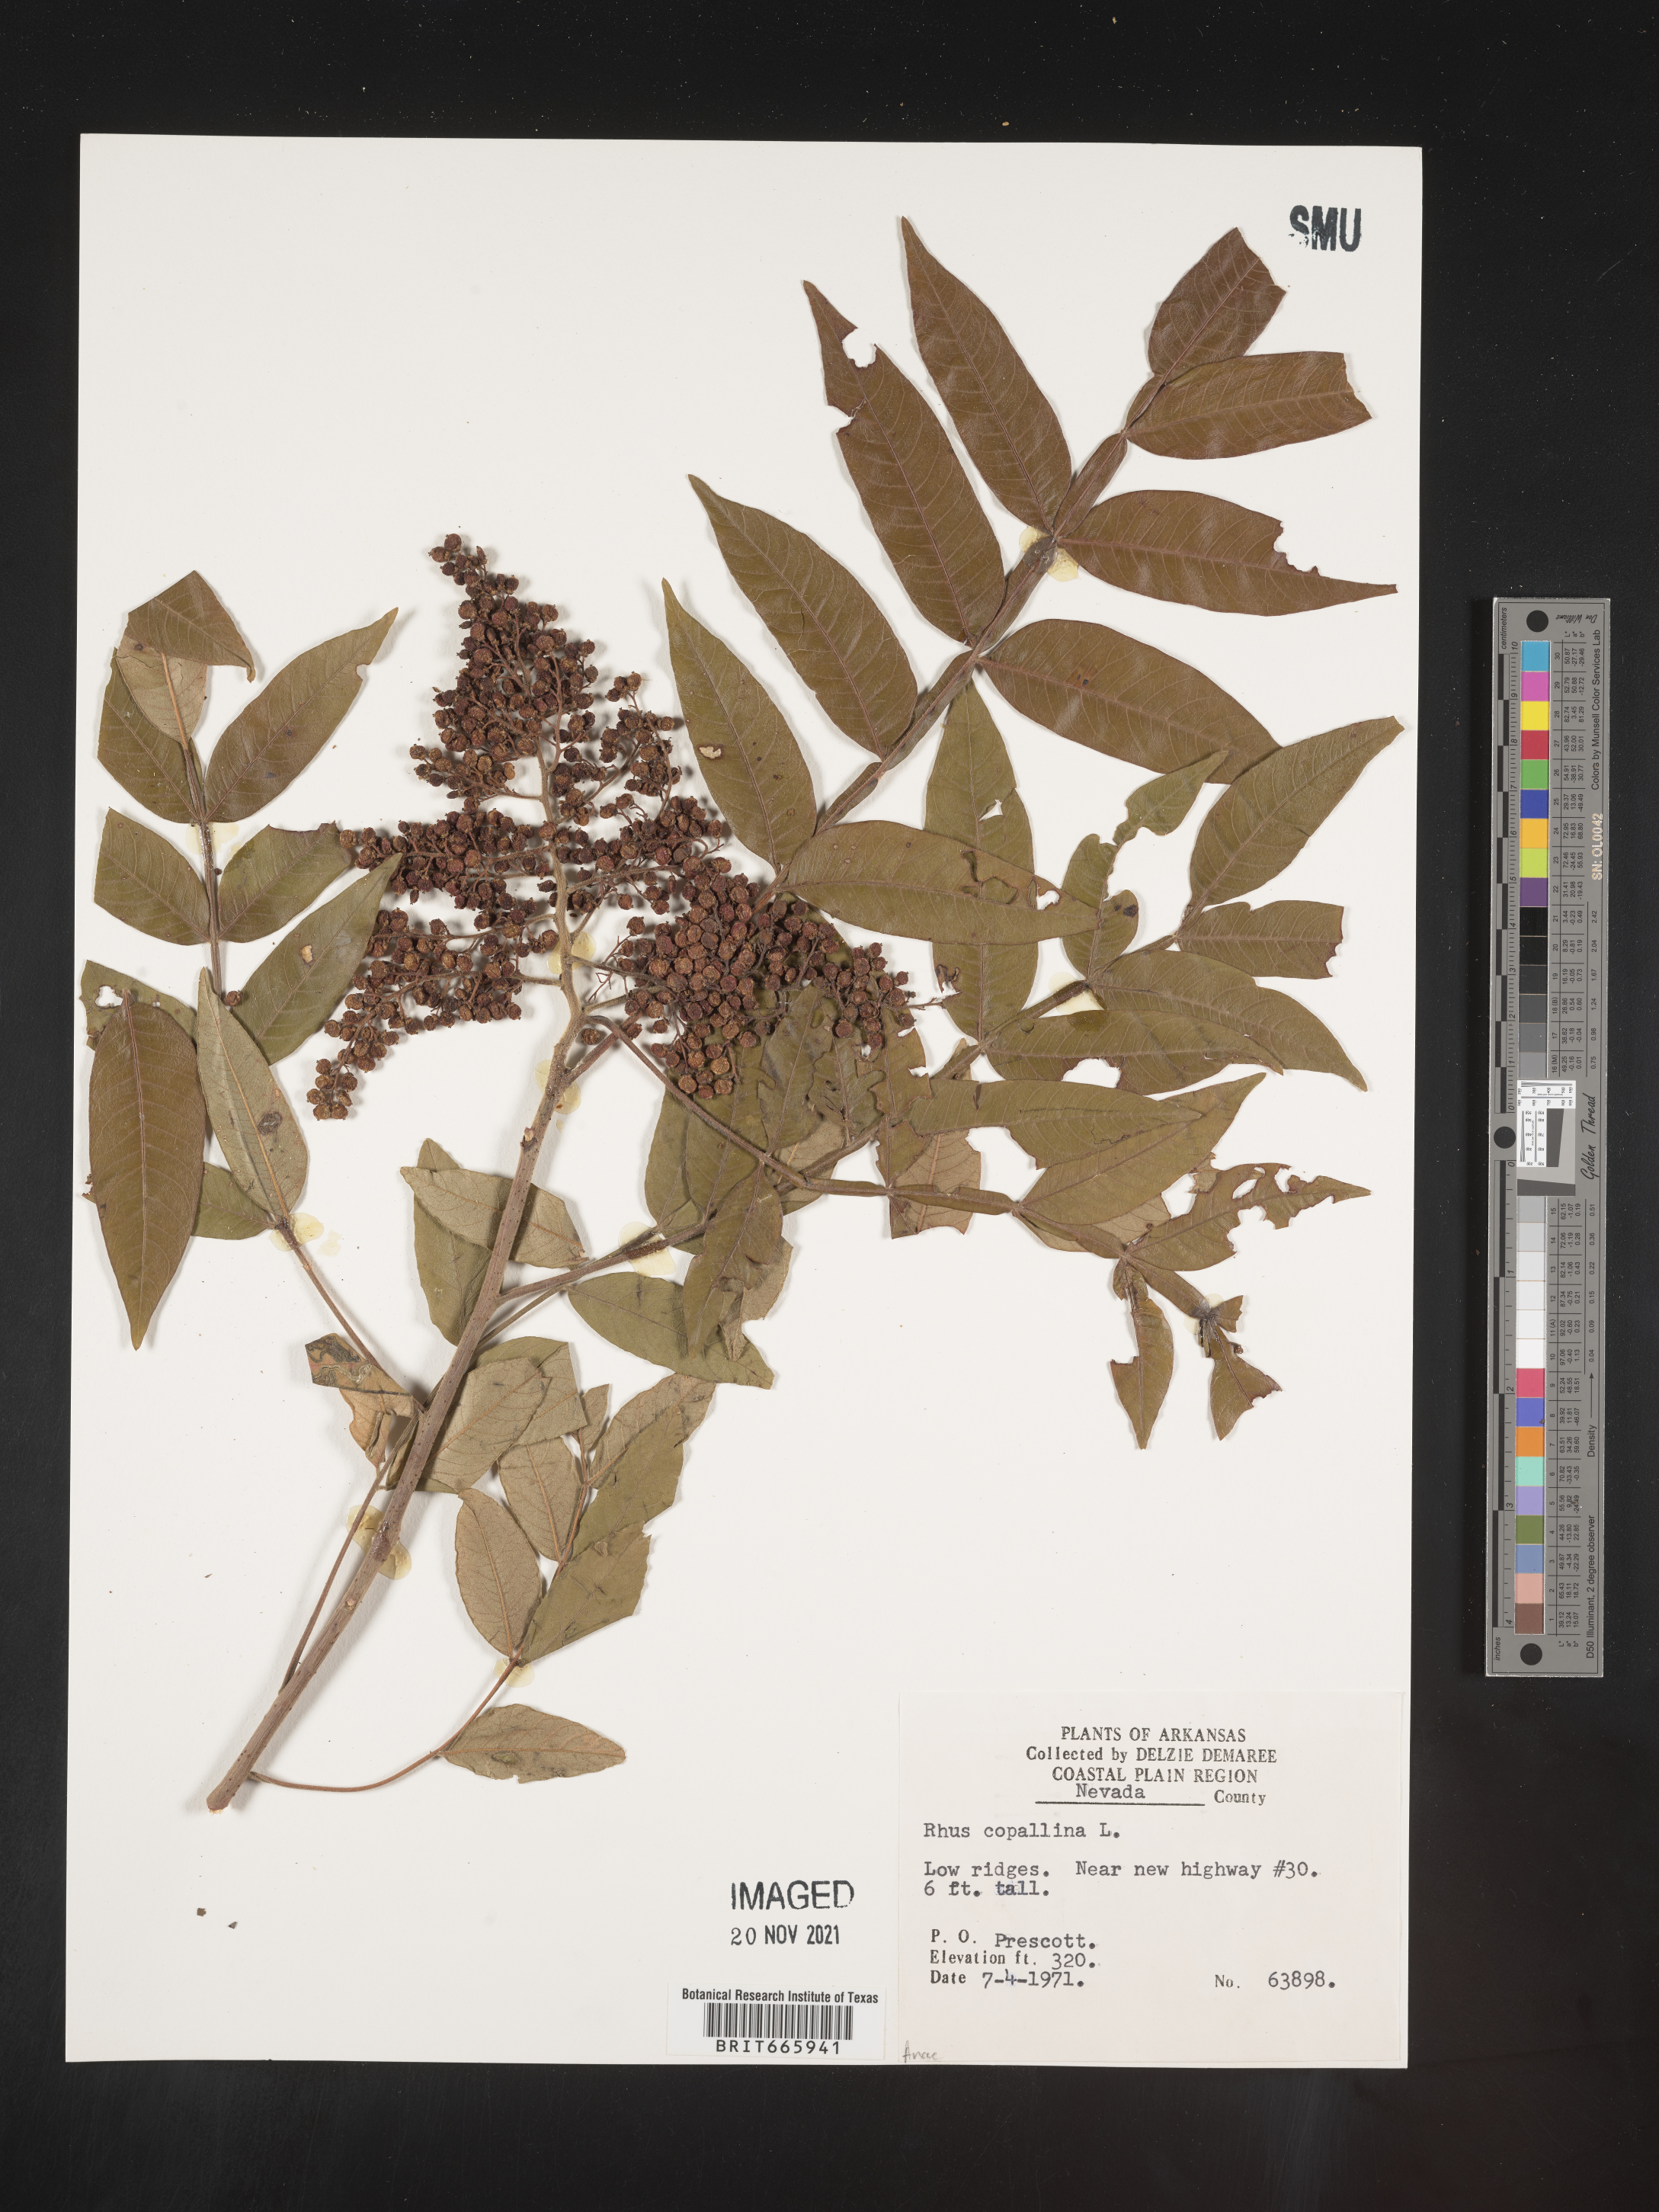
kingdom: Plantae
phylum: Tracheophyta
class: Magnoliopsida
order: Sapindales
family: Anacardiaceae
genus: Rhus
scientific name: Rhus copallina
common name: Shining sumac
